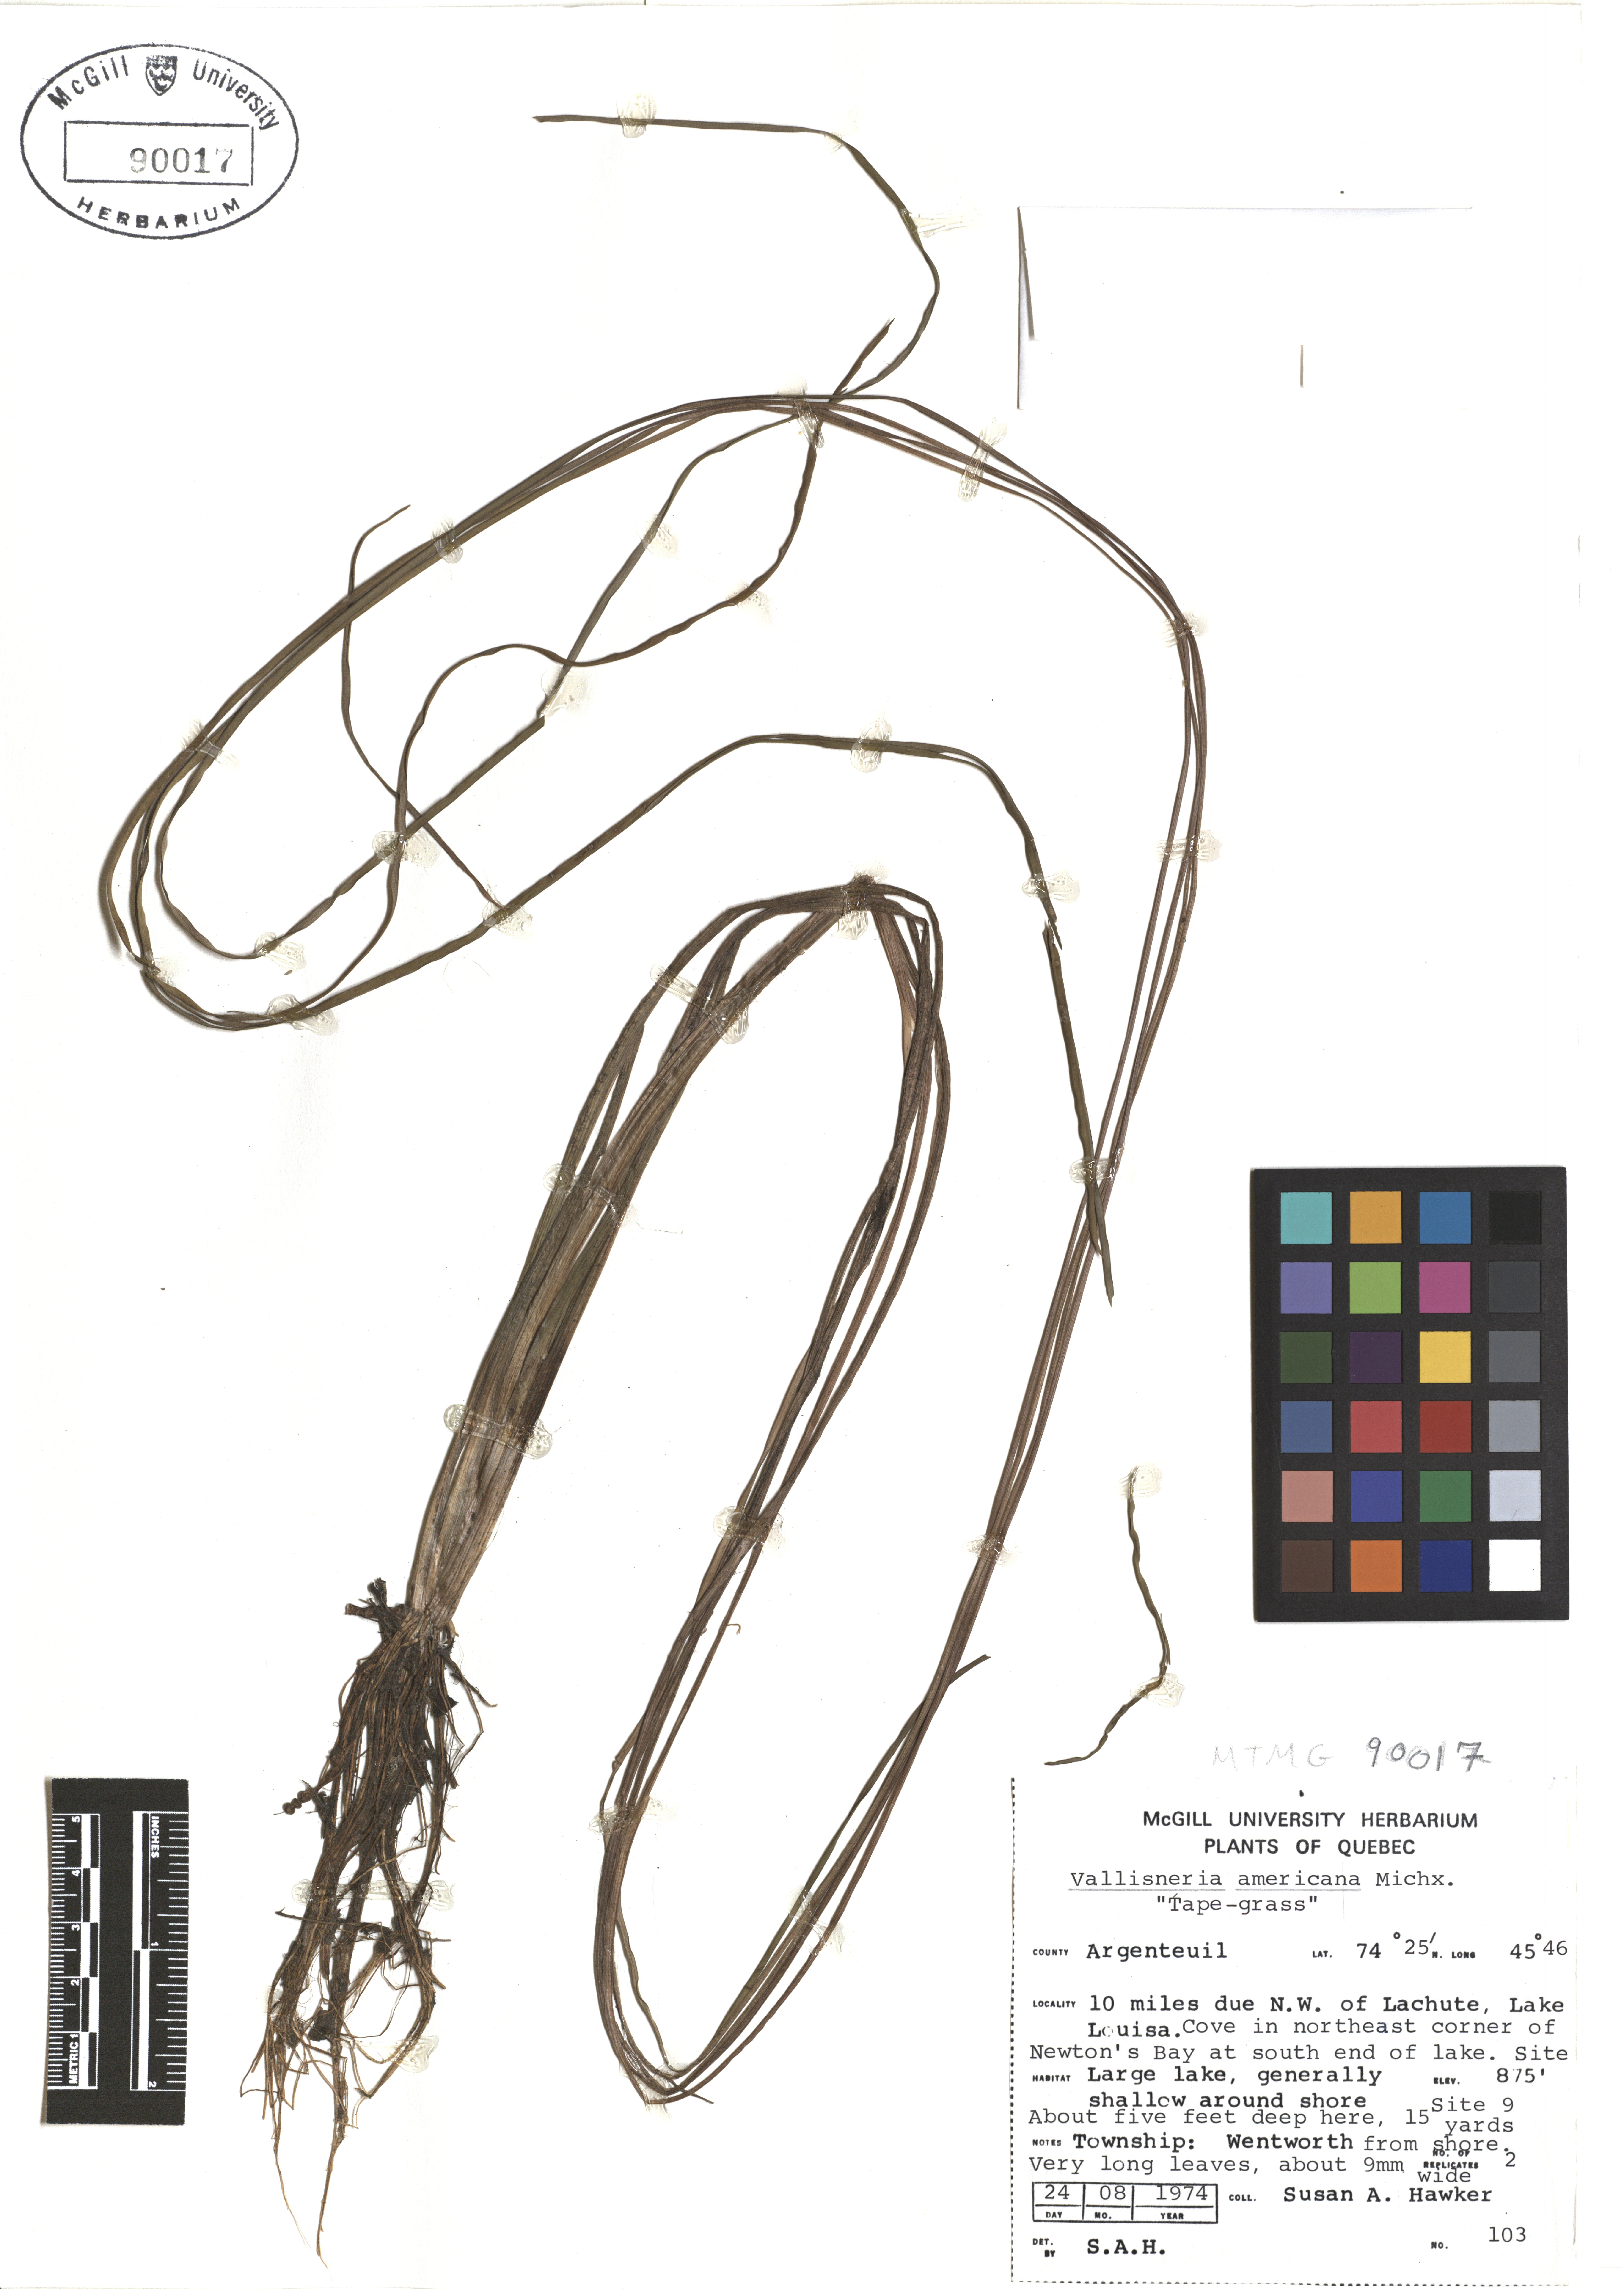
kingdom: Plantae
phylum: Tracheophyta
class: Liliopsida
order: Alismatales
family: Hydrocharitaceae
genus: Vallisneria
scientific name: Vallisneria americana
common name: American eelgrass
